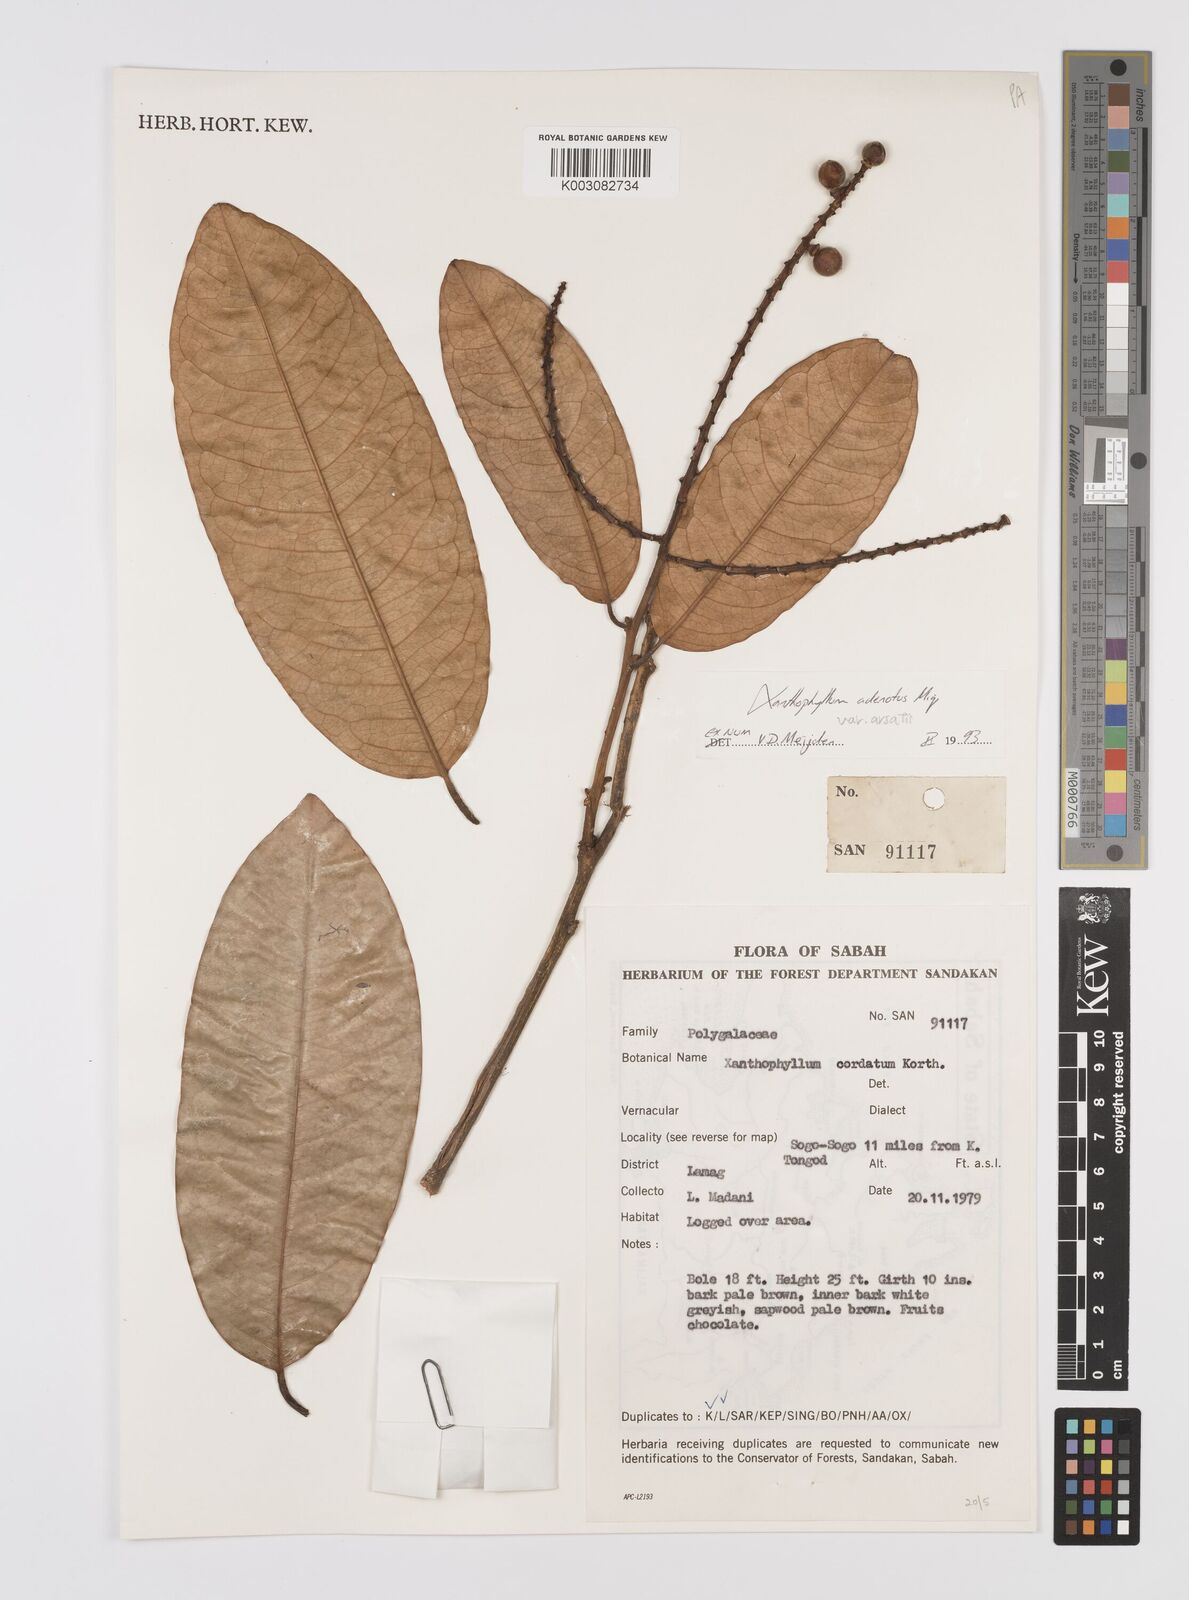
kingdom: Plantae
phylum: Tracheophyta
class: Magnoliopsida
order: Fabales
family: Polygalaceae
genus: Xanthophyllum
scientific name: Xanthophyllum adenotus
